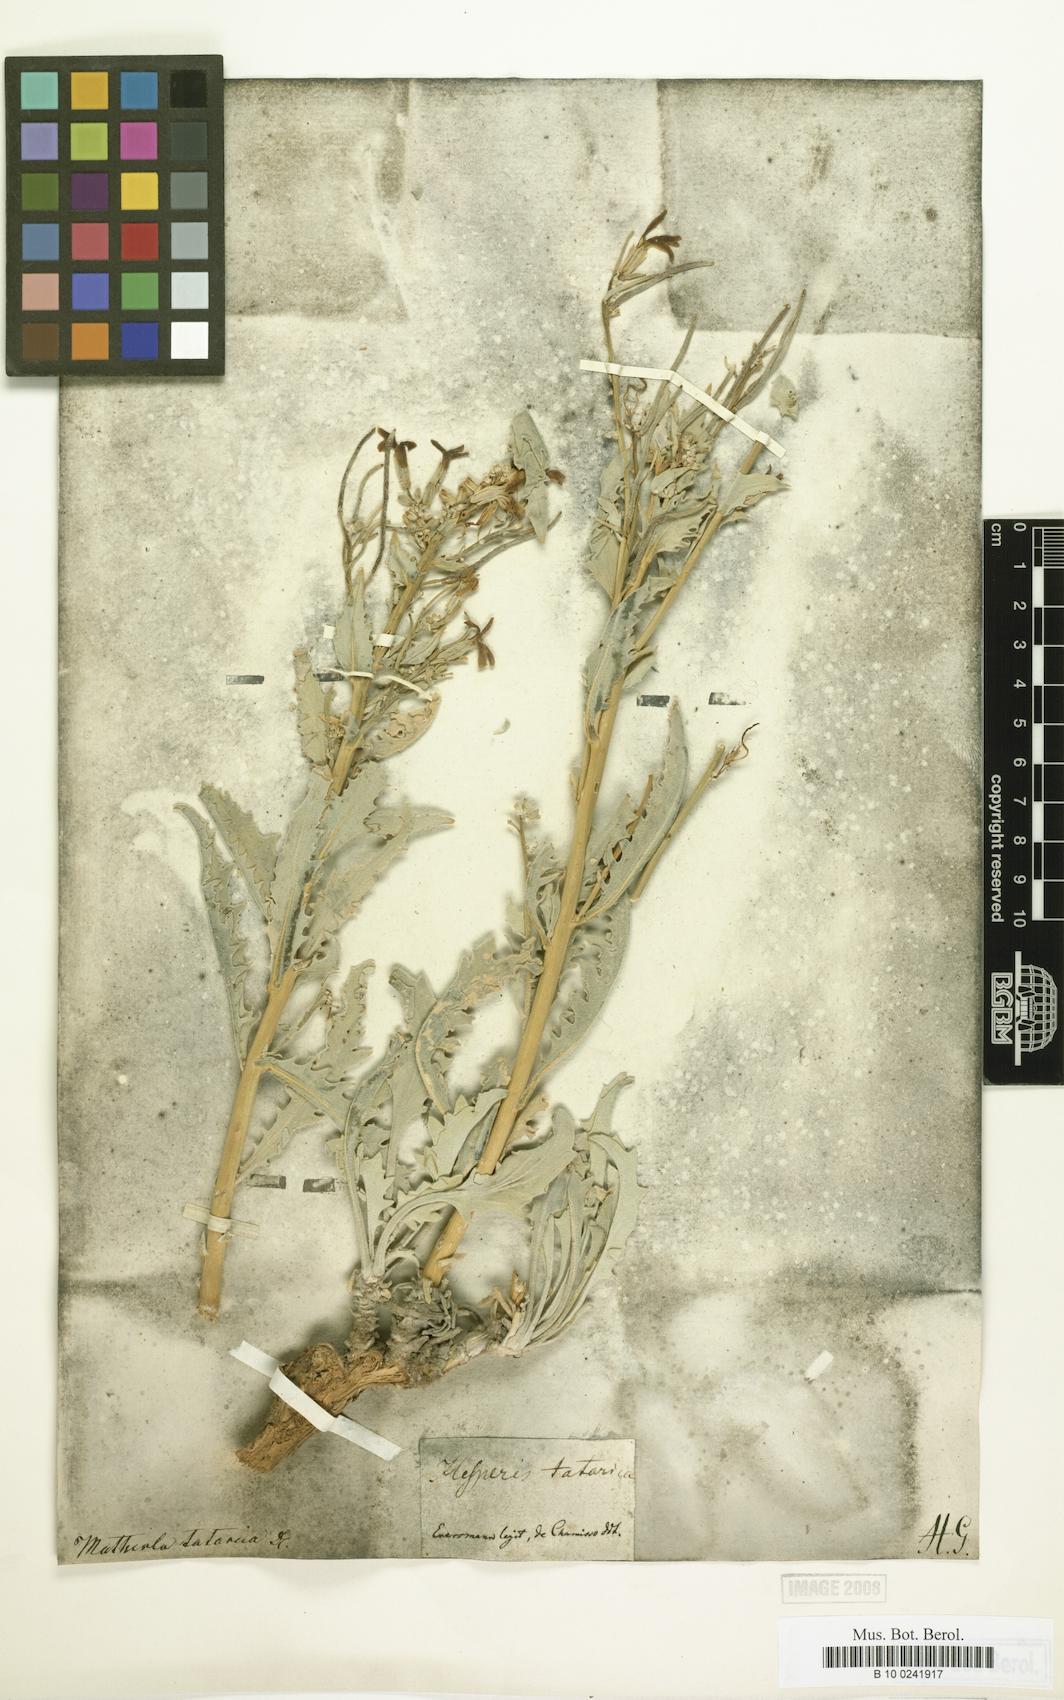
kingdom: Plantae
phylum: Tracheophyta
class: Magnoliopsida
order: Gentianales
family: Rubiaceae
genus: Guettarda
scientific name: Guettarda undulata
